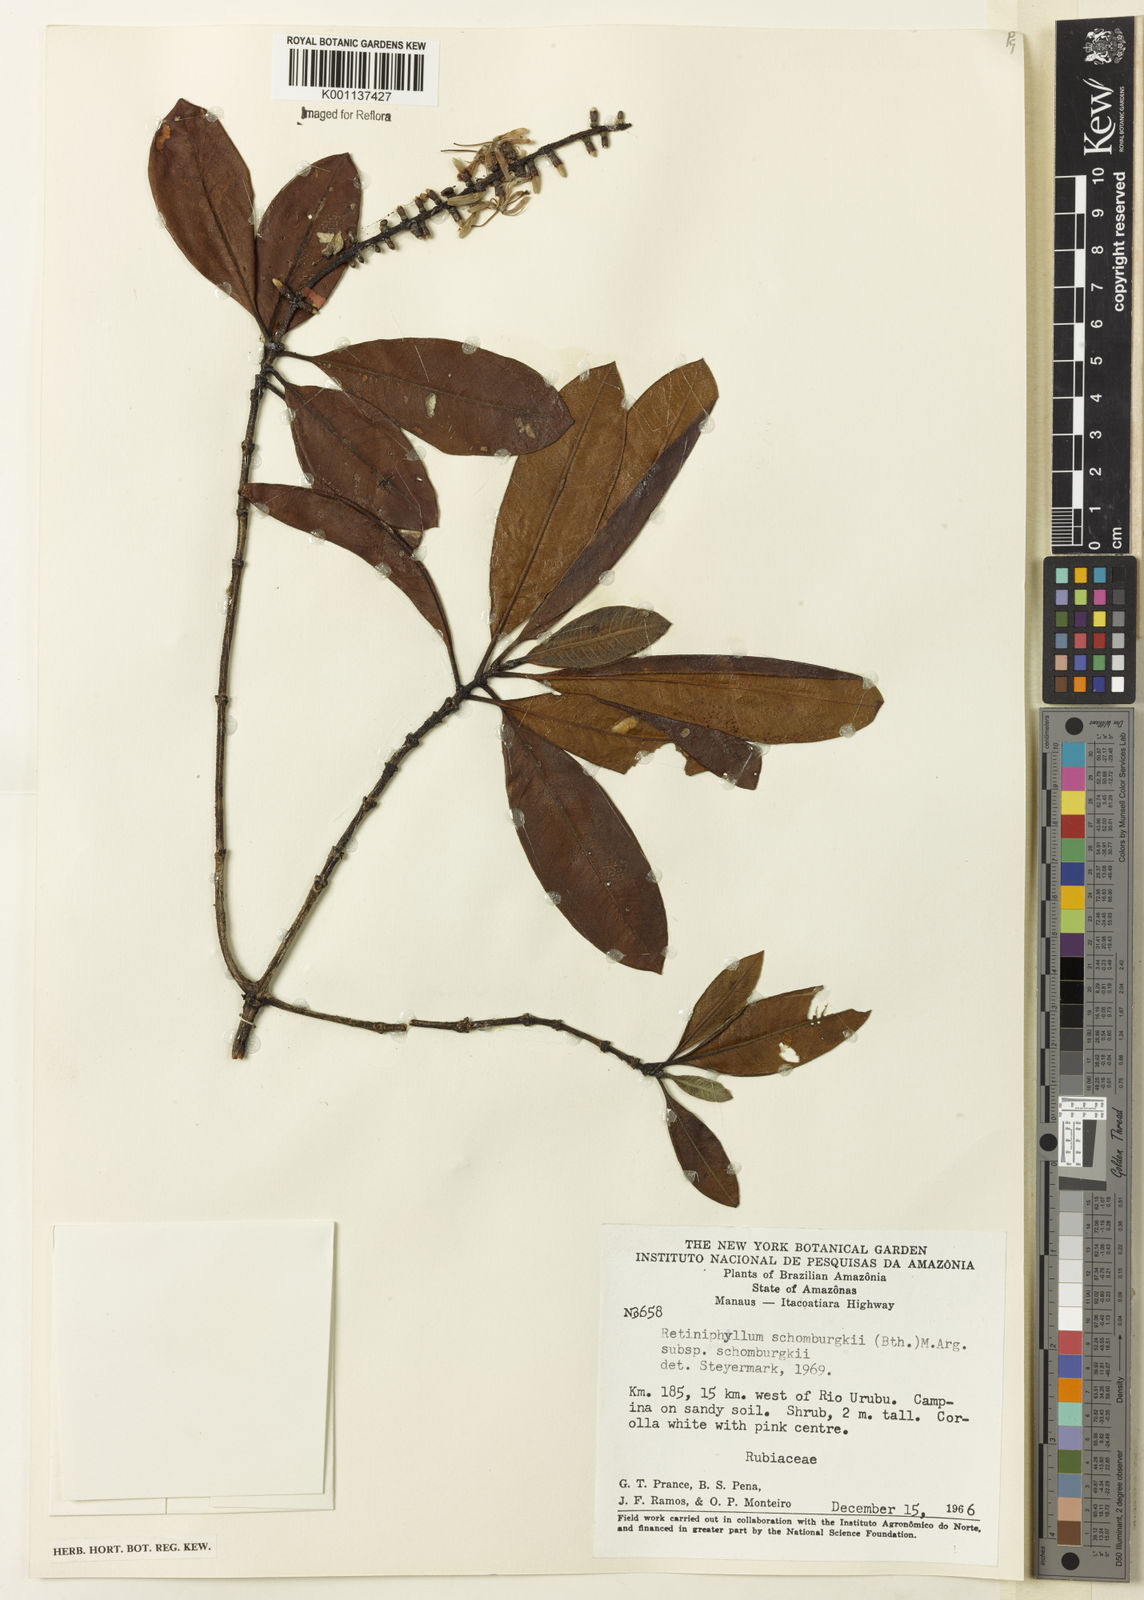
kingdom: Plantae
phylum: Tracheophyta
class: Magnoliopsida
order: Gentianales
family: Rubiaceae
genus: Retiniphyllum
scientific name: Retiniphyllum
